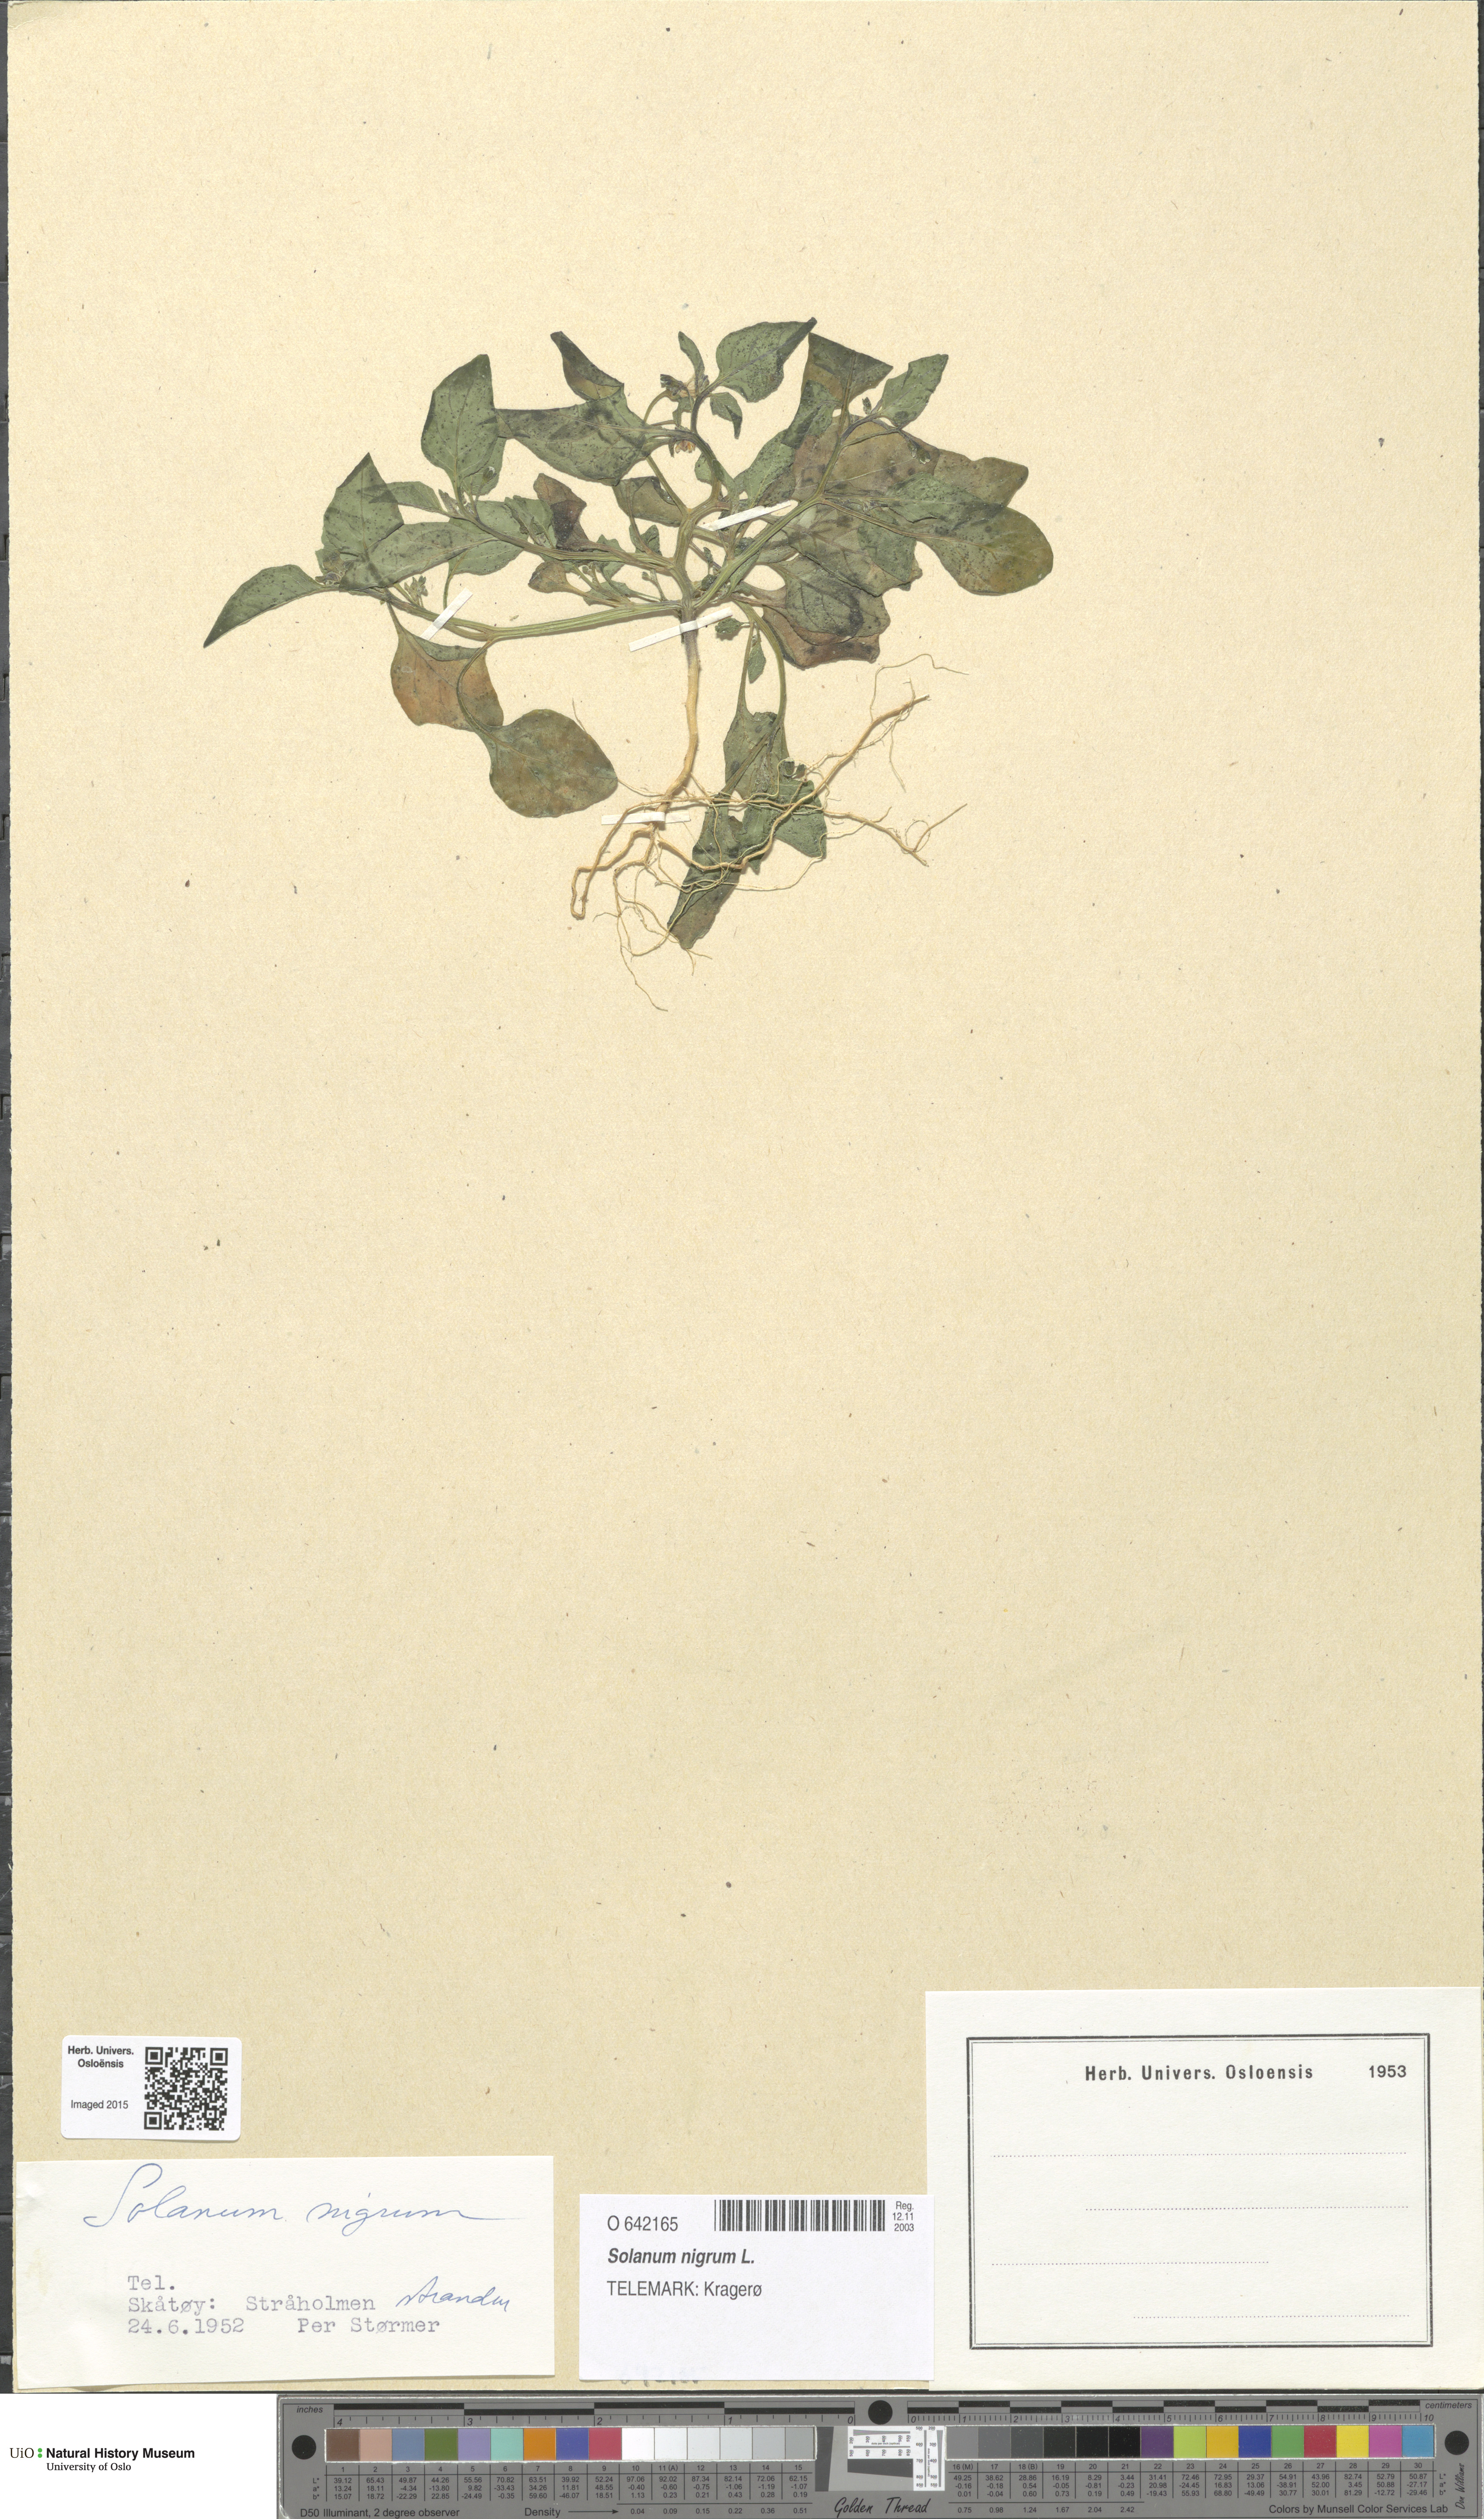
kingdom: Plantae
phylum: Tracheophyta
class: Magnoliopsida
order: Solanales
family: Solanaceae
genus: Solanum
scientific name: Solanum nigrum
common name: Black nightshade
